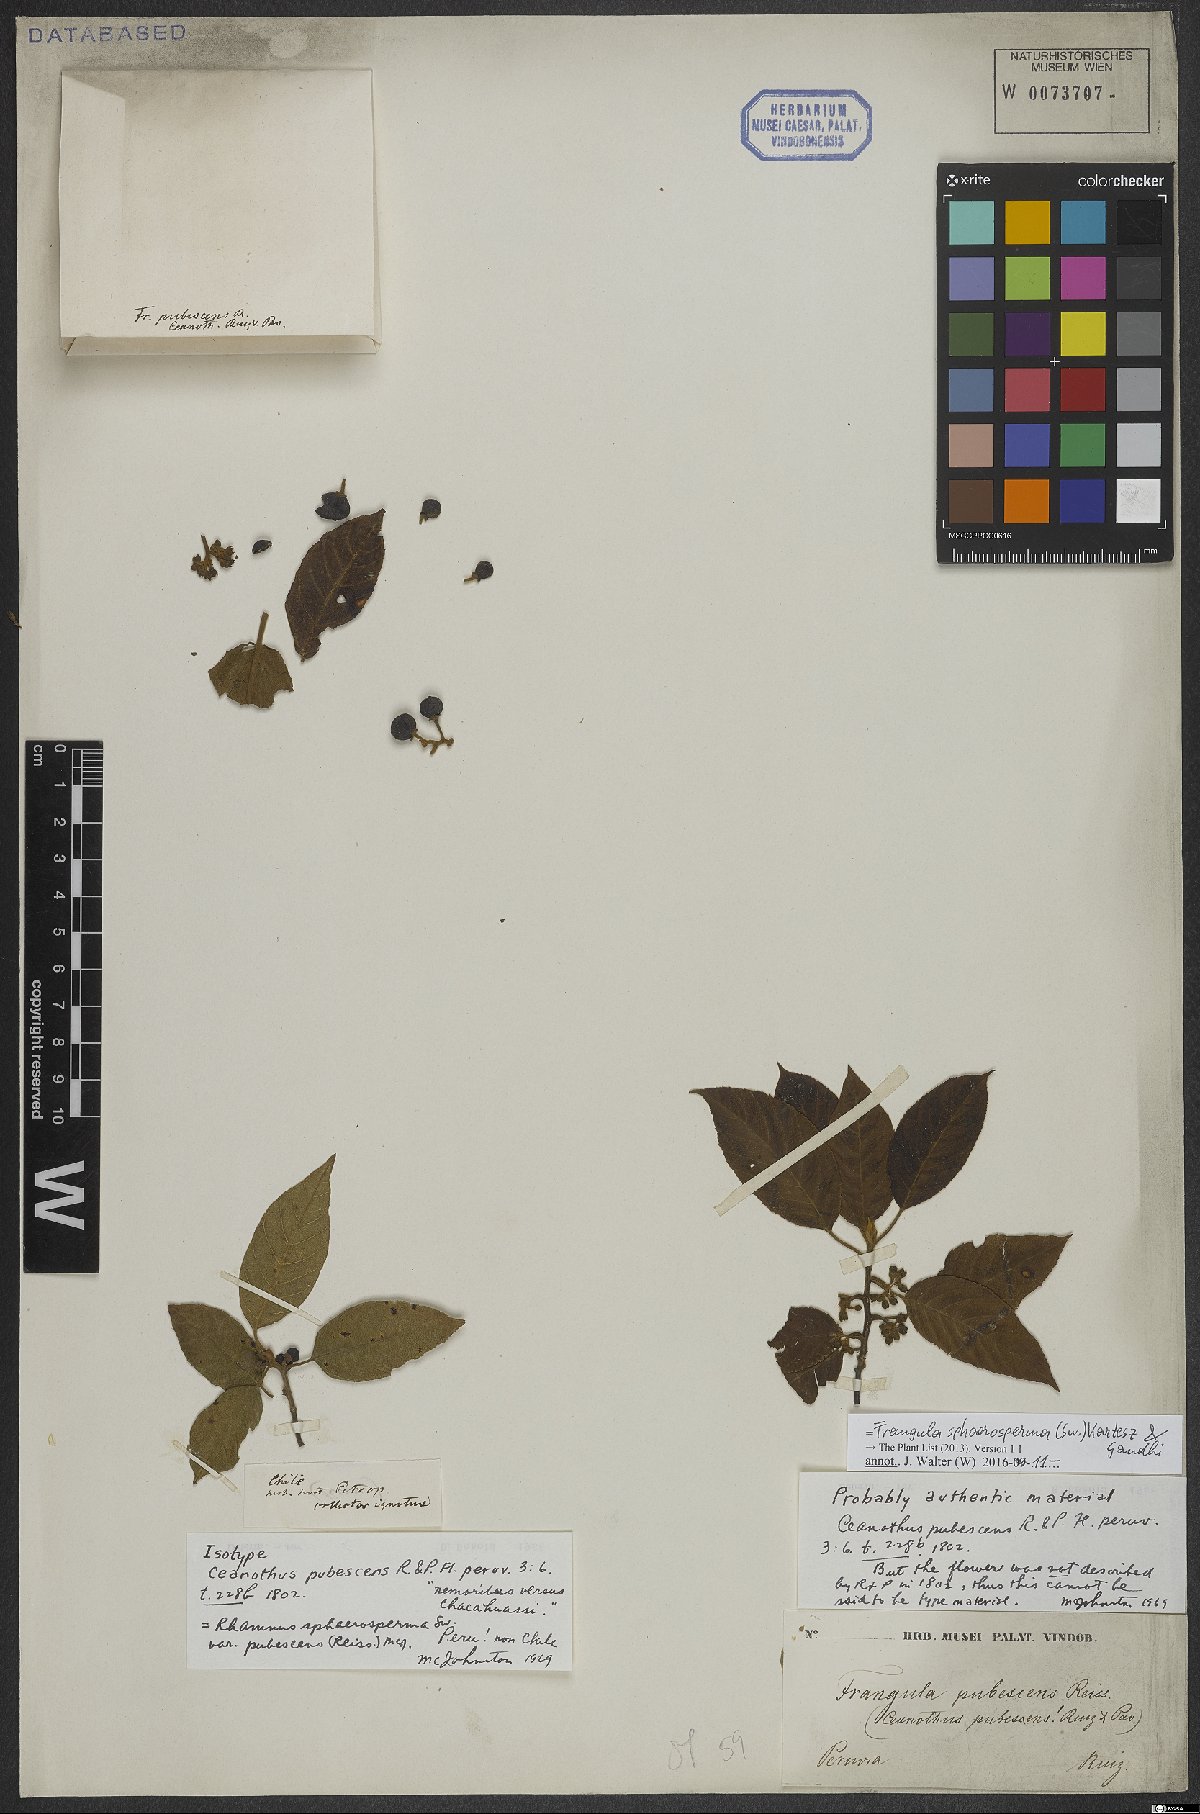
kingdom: Plantae
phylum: Tracheophyta
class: Magnoliopsida
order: Rosales
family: Rhamnaceae
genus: Frangula
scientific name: Frangula sphaerosperma
